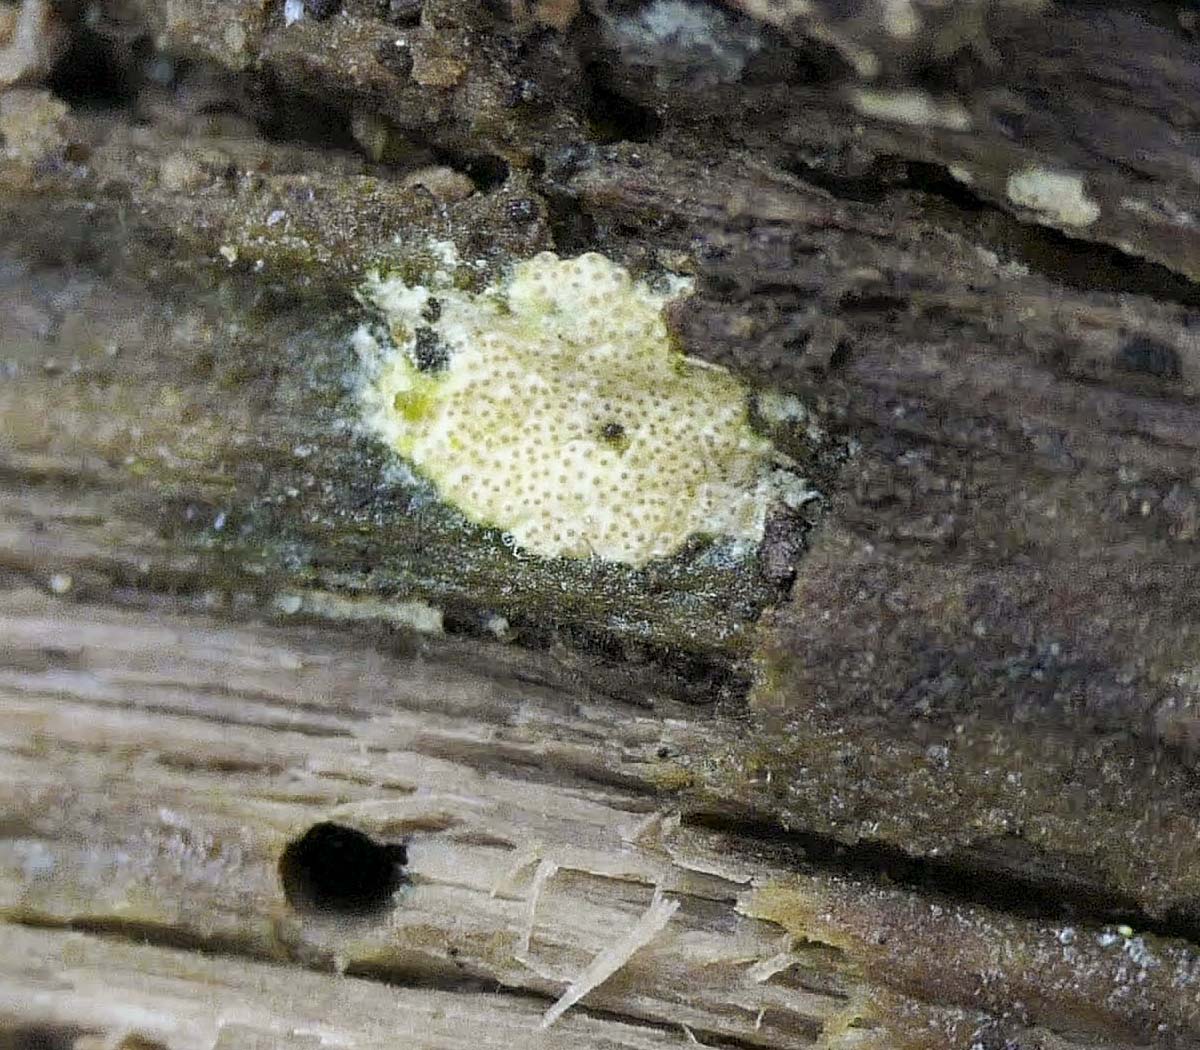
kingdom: Fungi
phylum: Ascomycota
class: Sordariomycetes
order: Hypocreales
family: Hypocreaceae
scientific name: Hypocreaceae
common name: kødkernefamilien
